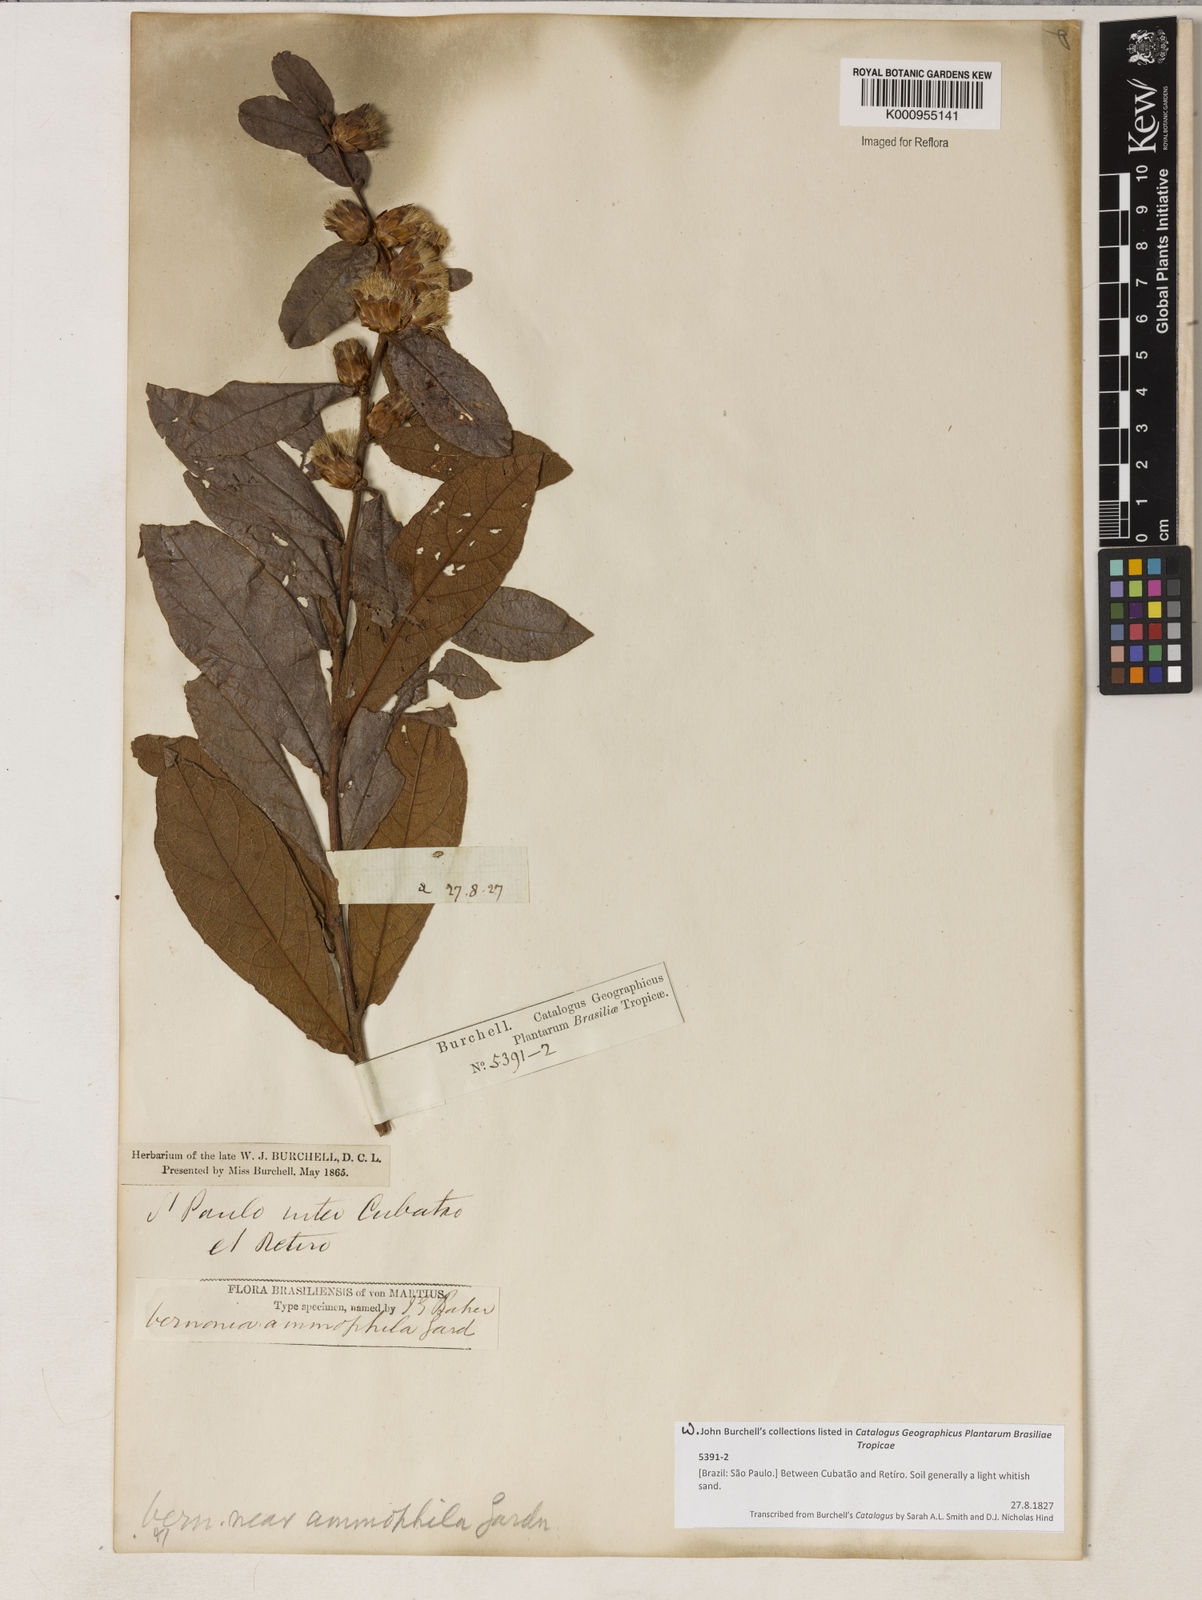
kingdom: Plantae
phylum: Tracheophyta
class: Magnoliopsida
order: Asterales
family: Asteraceae
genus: Lessingianthus
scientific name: Lessingianthus ammophilus
